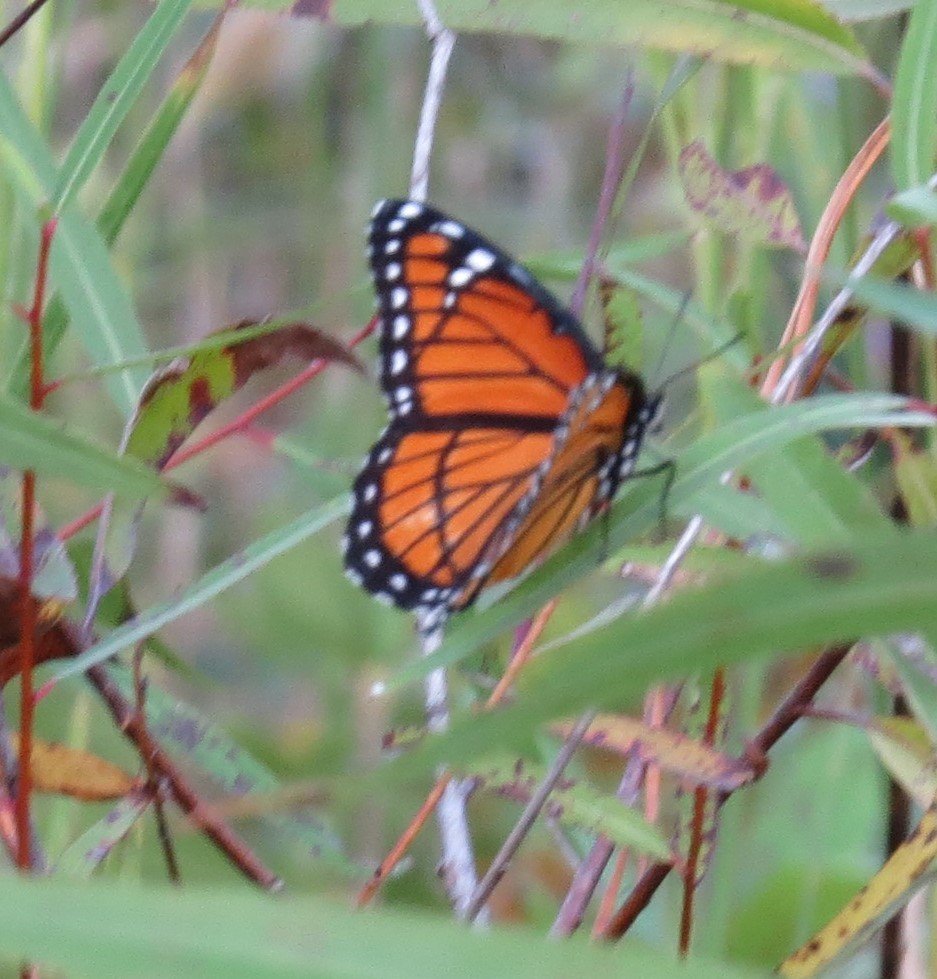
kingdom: Animalia
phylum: Arthropoda
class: Insecta
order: Lepidoptera
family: Nymphalidae
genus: Limenitis
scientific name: Limenitis archippus
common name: Viceroy
